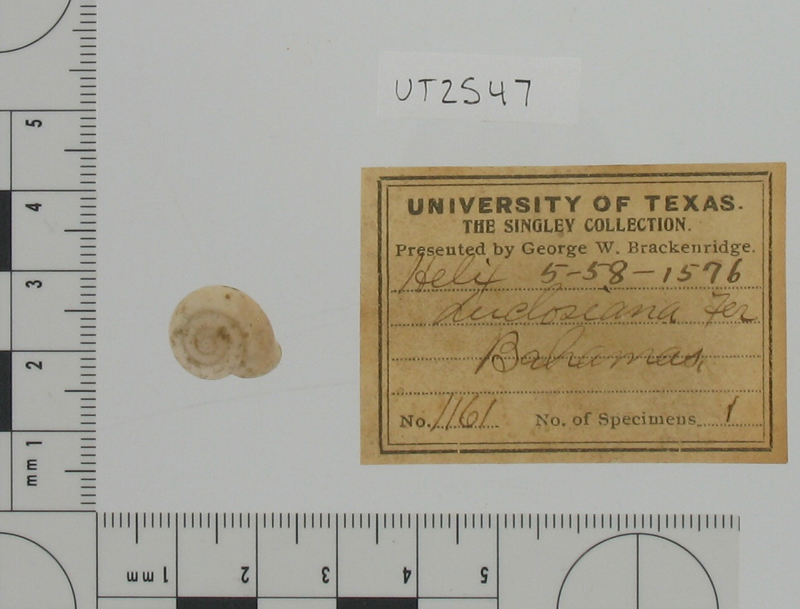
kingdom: Animalia
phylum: Mollusca
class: Gastropoda
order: Stylommatophora
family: Cepolidae
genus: Plagioptycha
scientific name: Plagioptycha duclosiana
